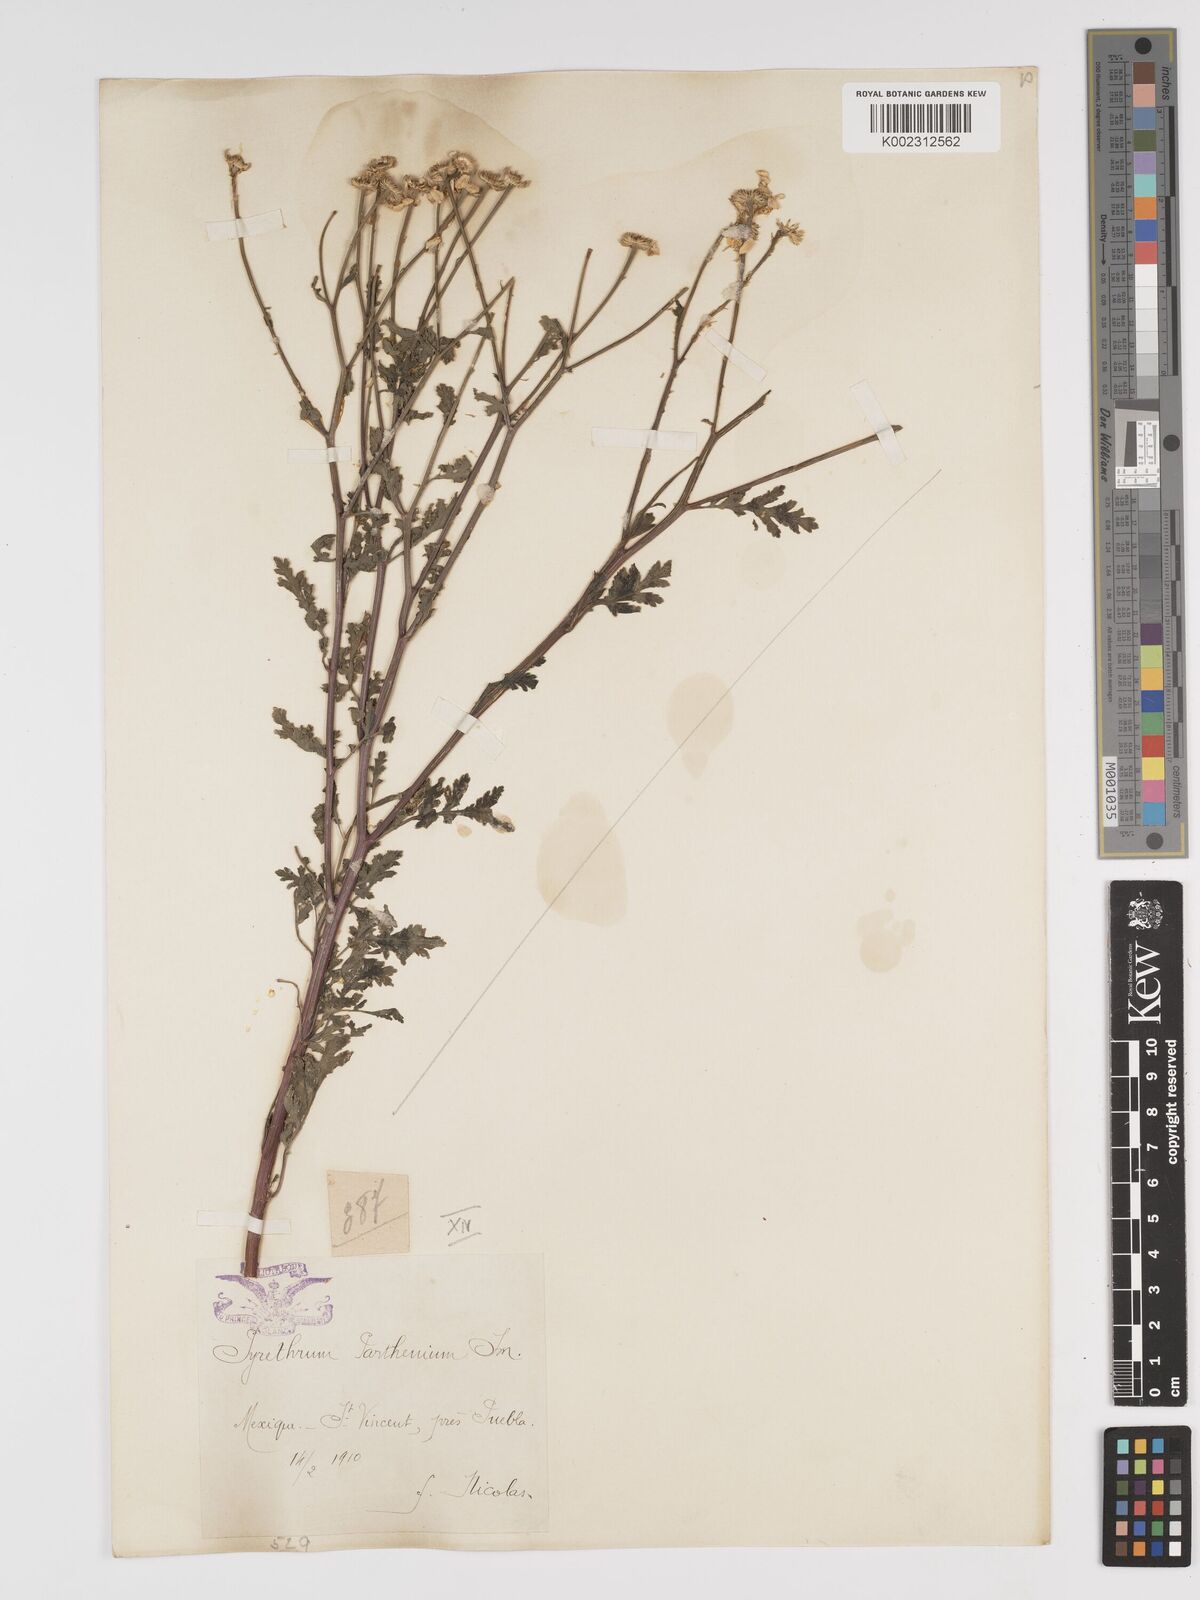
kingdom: Plantae
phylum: Tracheophyta
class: Magnoliopsida
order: Asterales
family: Asteraceae
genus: Tanacetum
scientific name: Tanacetum parthenium
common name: Feverfew
